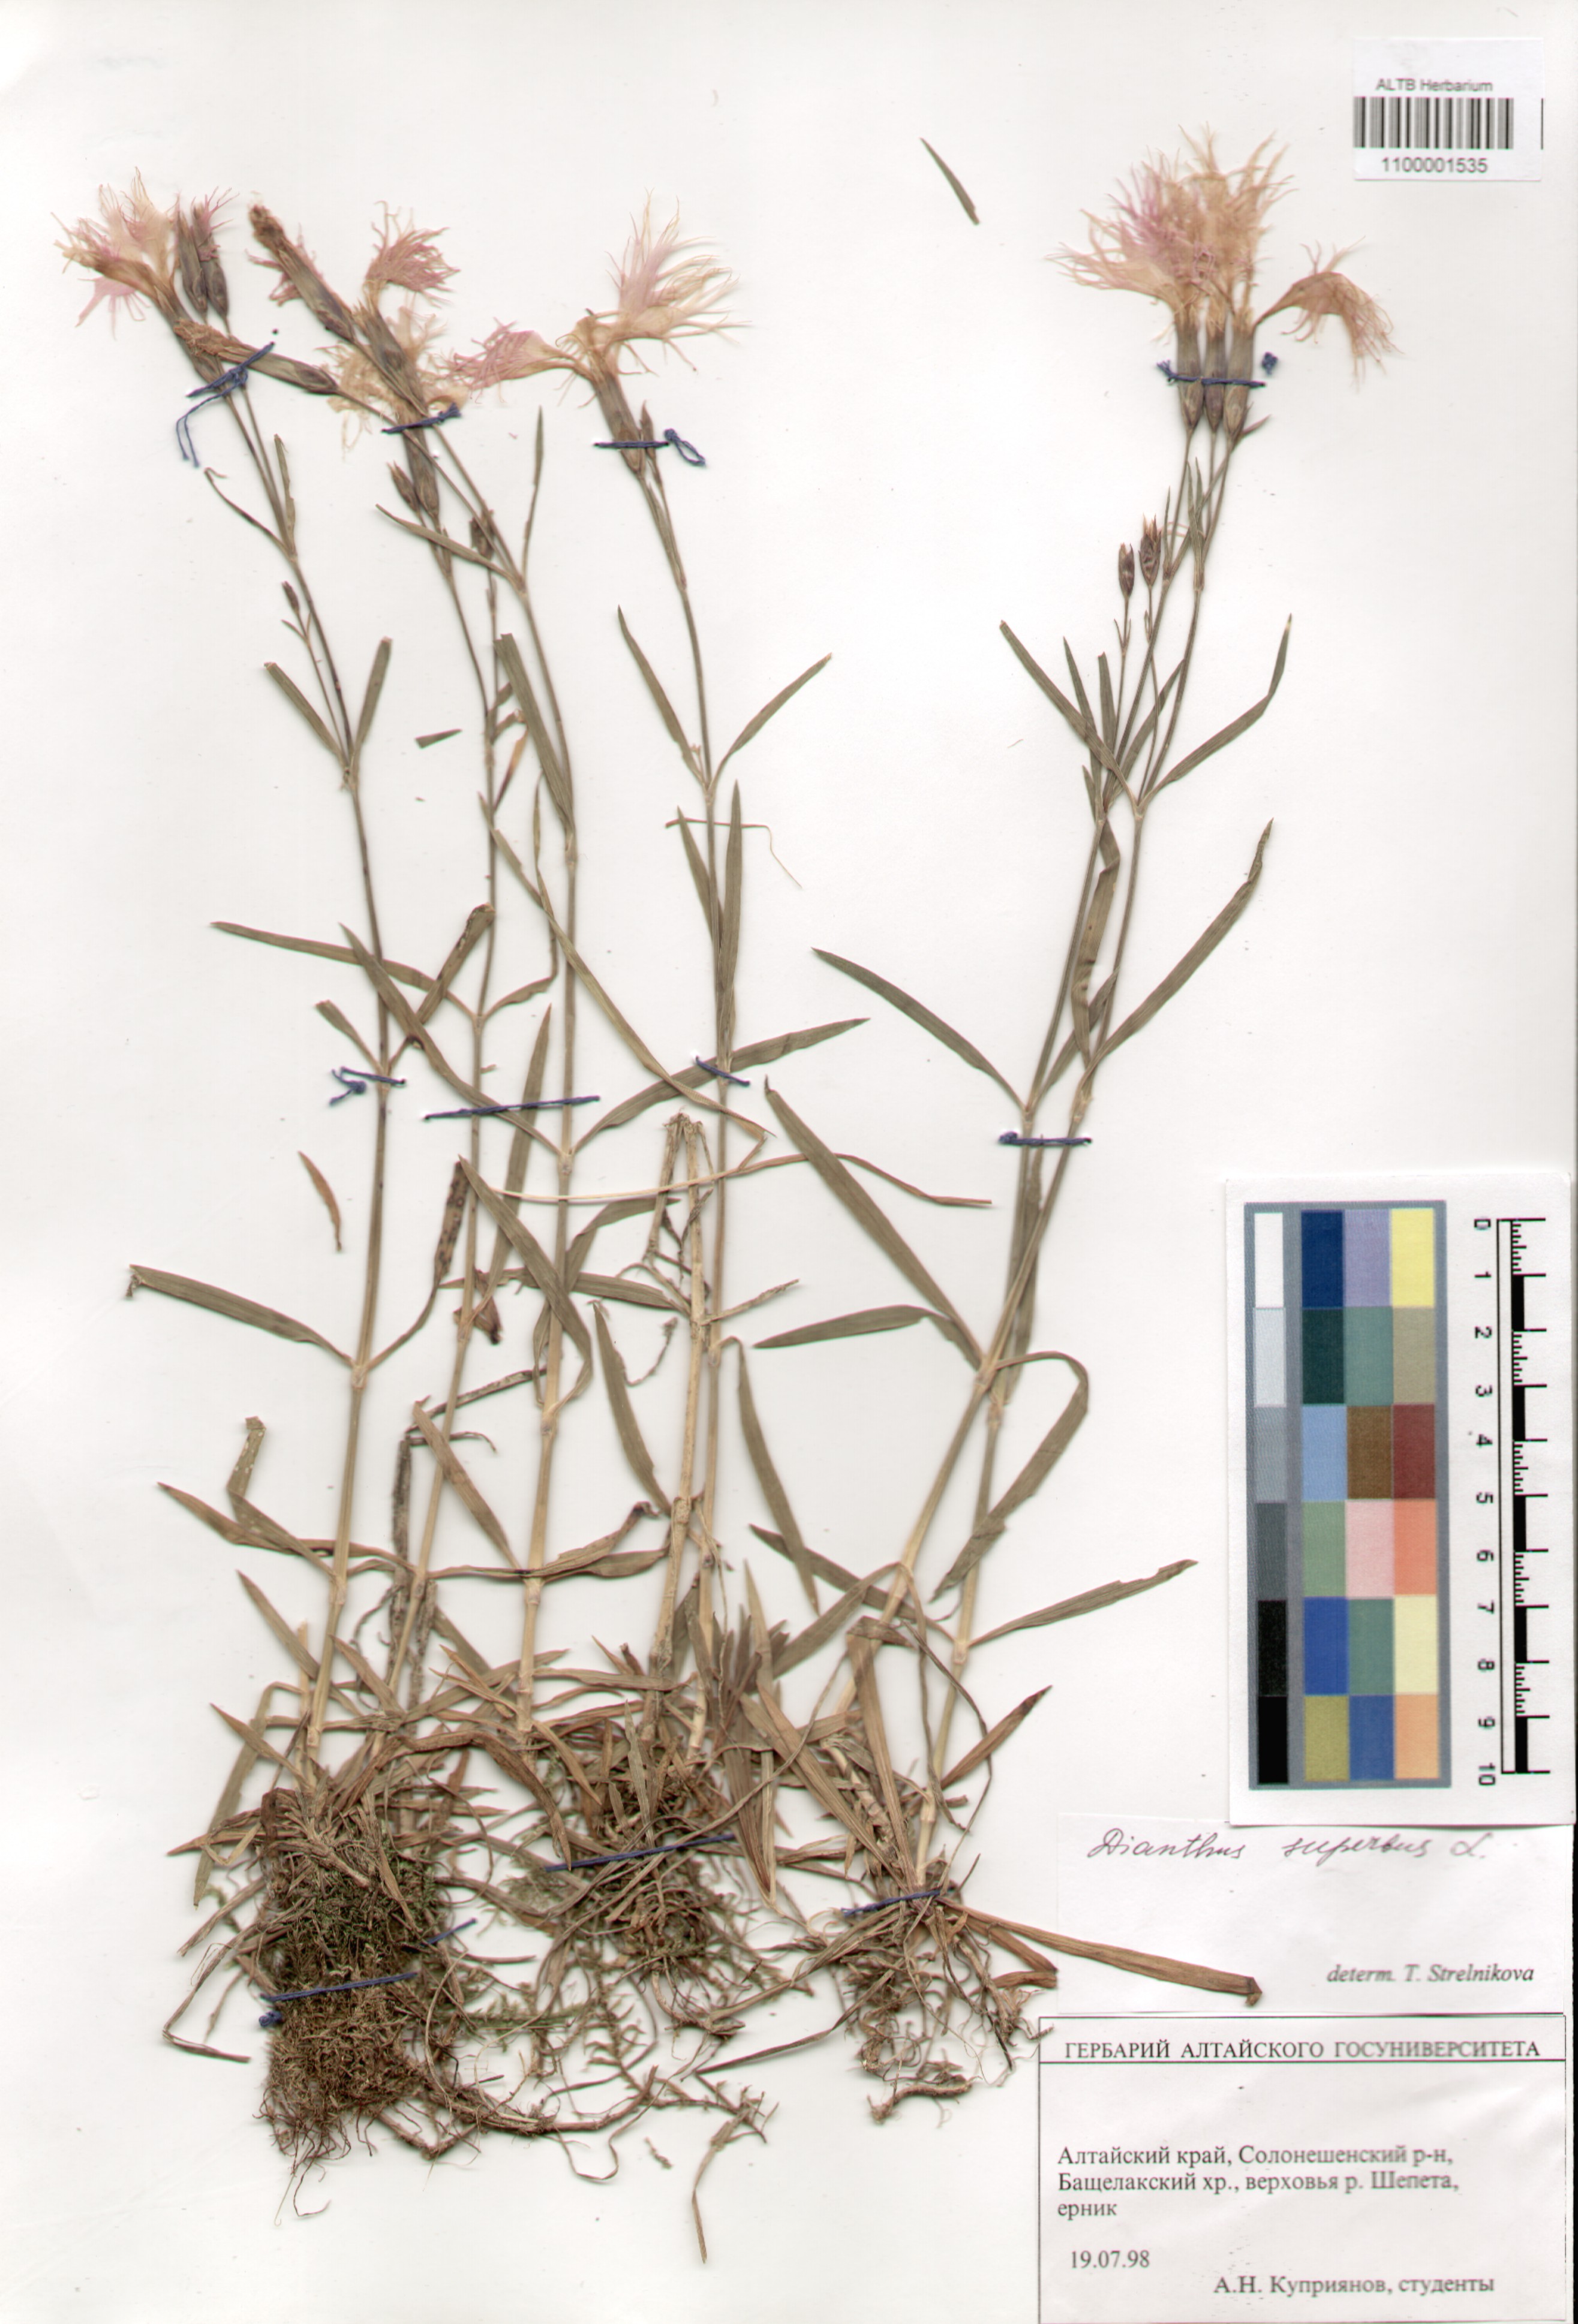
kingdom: Plantae
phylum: Tracheophyta
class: Magnoliopsida
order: Caryophyllales
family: Caryophyllaceae
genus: Dianthus
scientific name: Dianthus superbus
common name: Fringed pink
